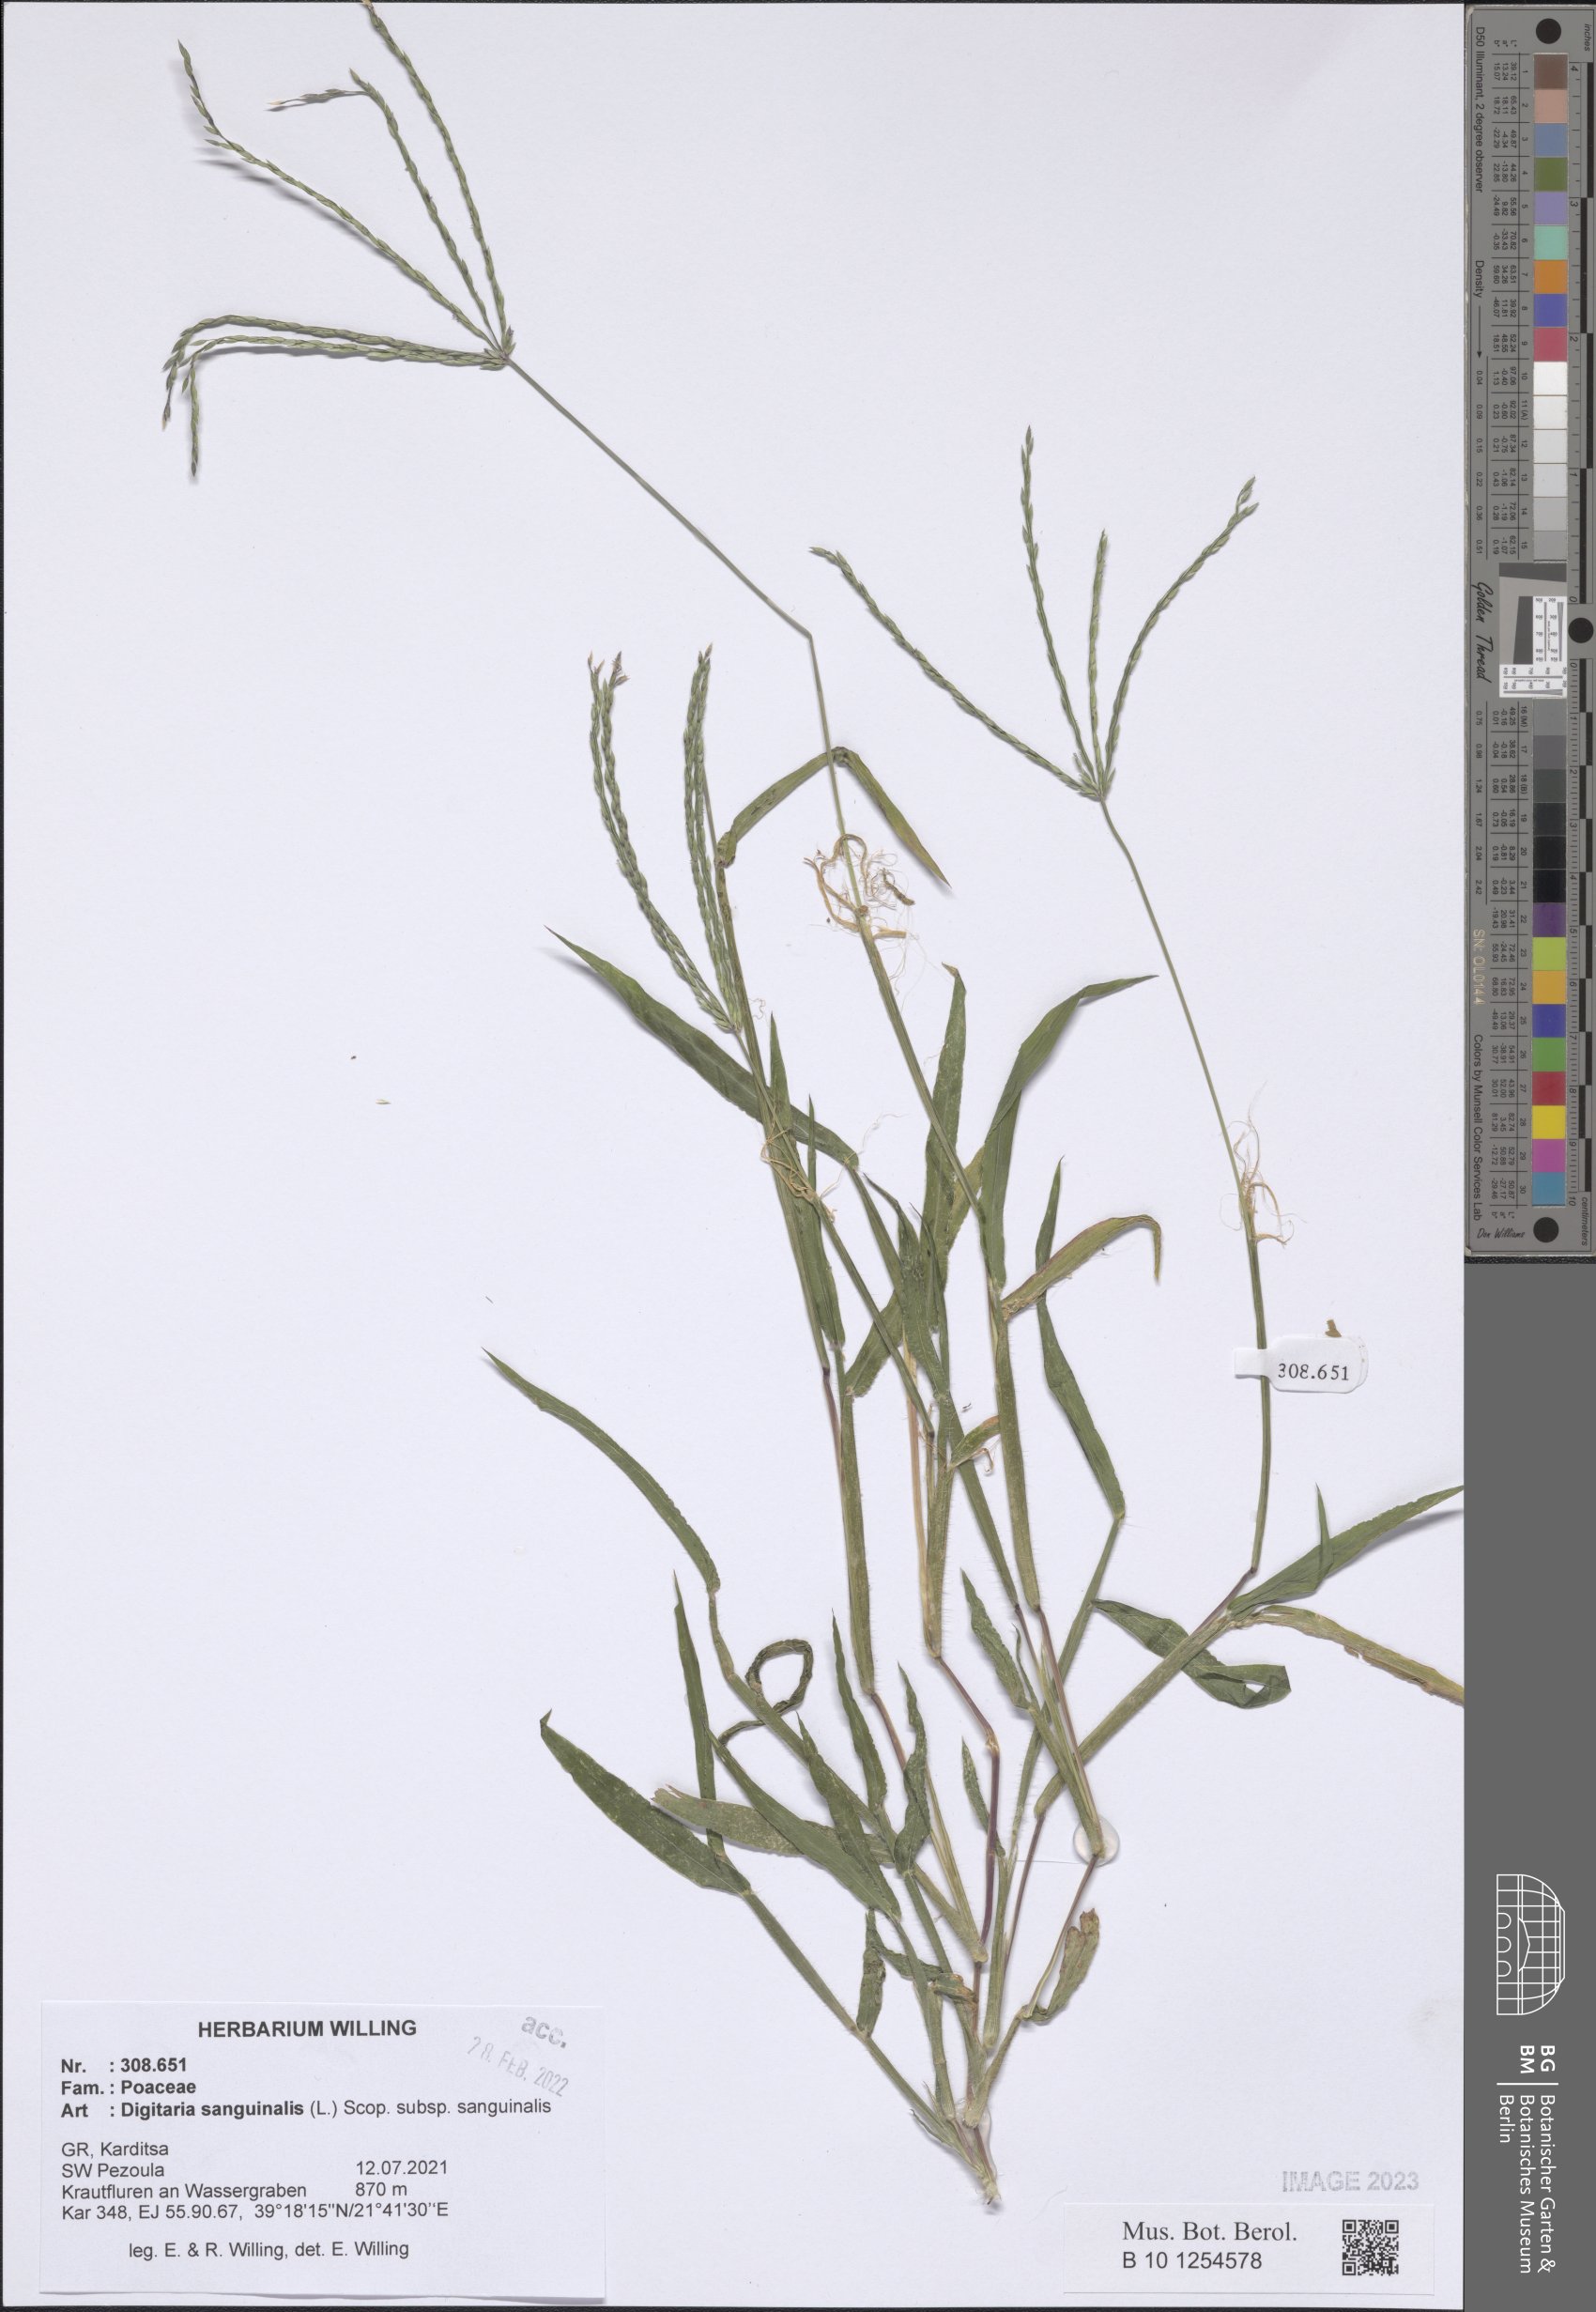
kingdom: Plantae
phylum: Tracheophyta
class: Liliopsida
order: Poales
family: Poaceae
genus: Digitaria
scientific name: Digitaria sanguinalis
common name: Hairy crabgrass
